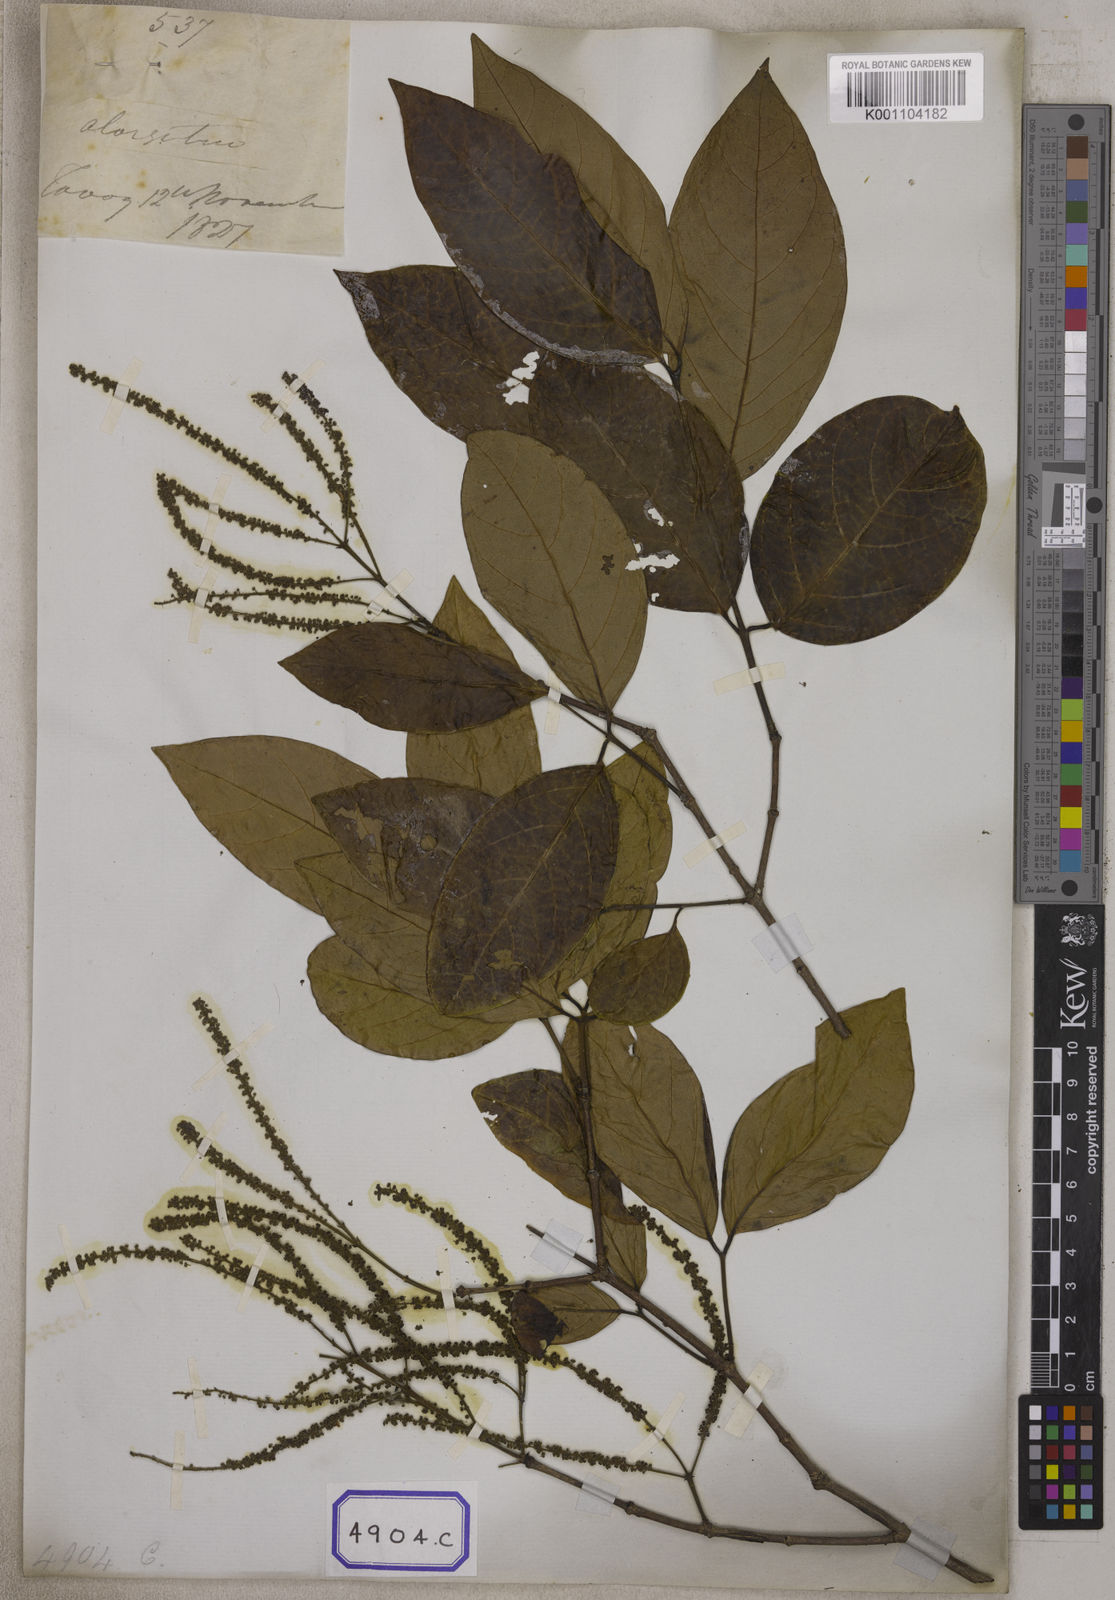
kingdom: Plantae
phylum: Tracheophyta
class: Magnoliopsida
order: Myrtales
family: Crypteroniaceae
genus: Crypteronia
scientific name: Crypteronia paniculata
